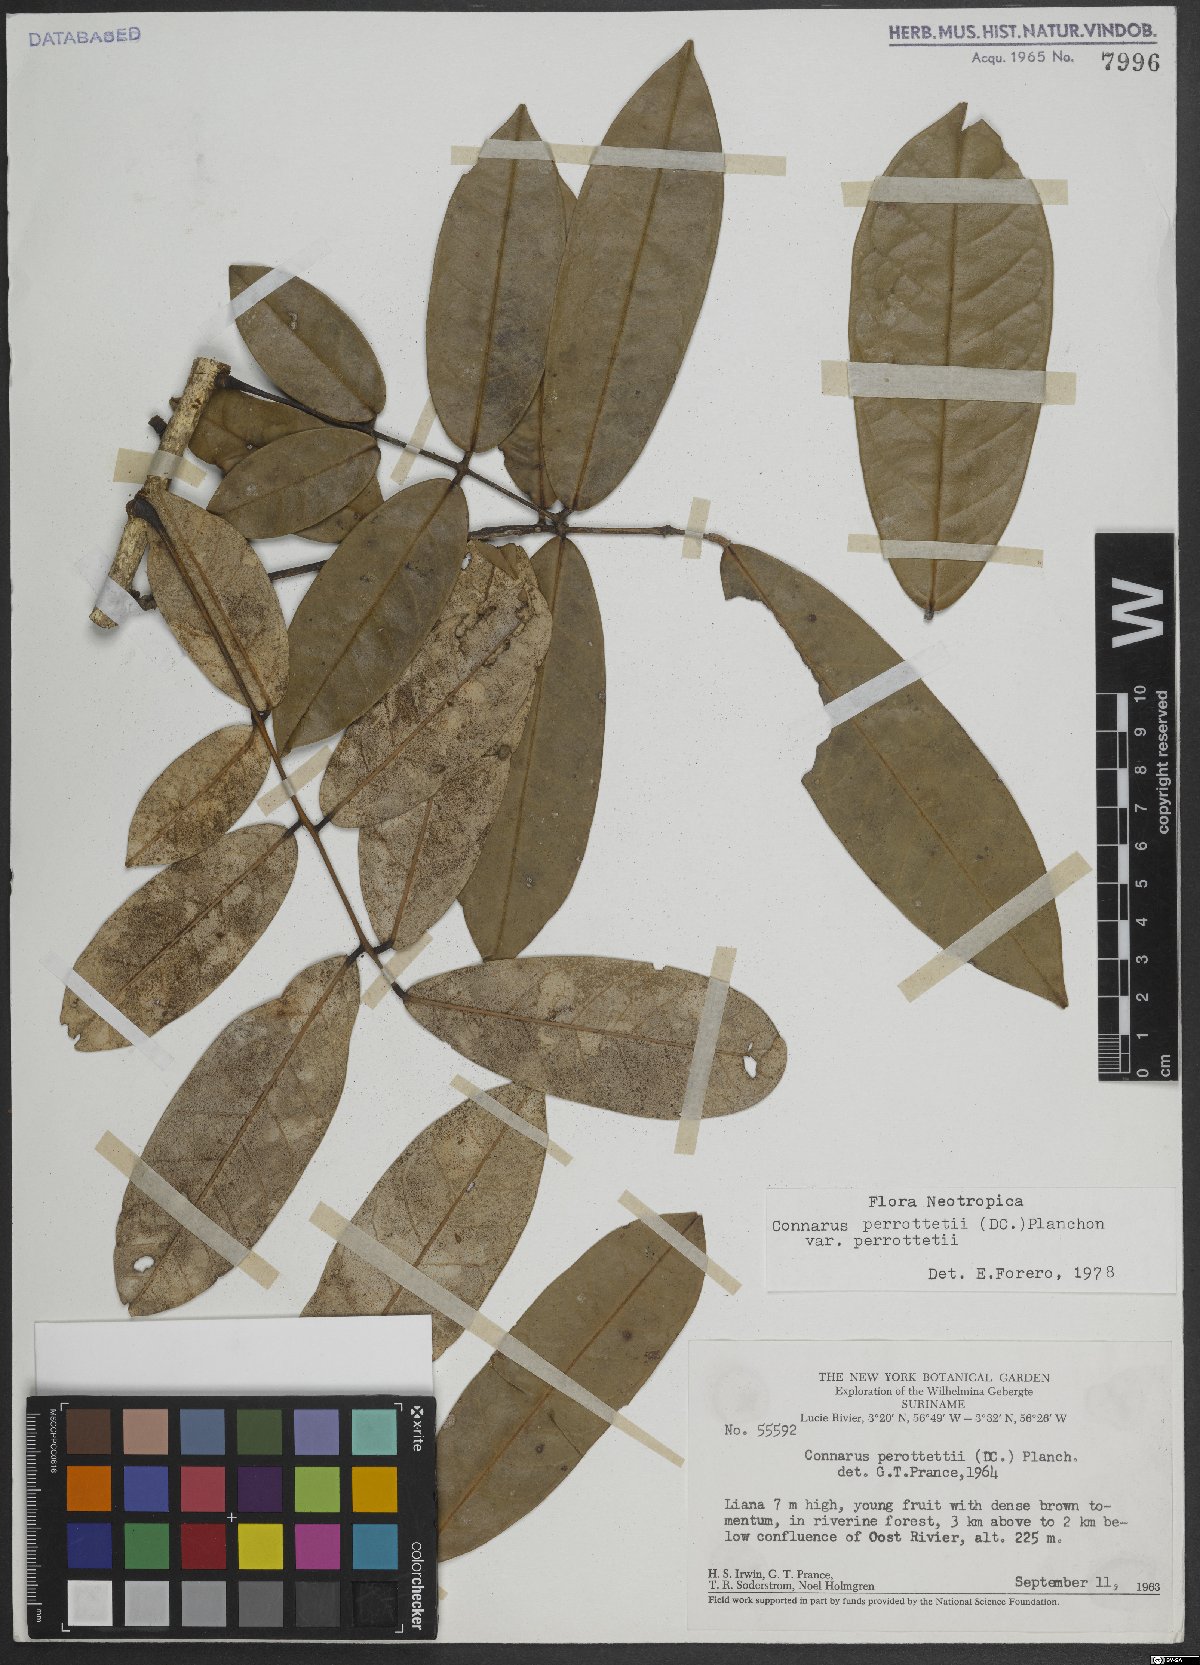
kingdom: Plantae
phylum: Tracheophyta
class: Magnoliopsida
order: Oxalidales
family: Connaraceae
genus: Connarus
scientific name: Connarus perrottetii
